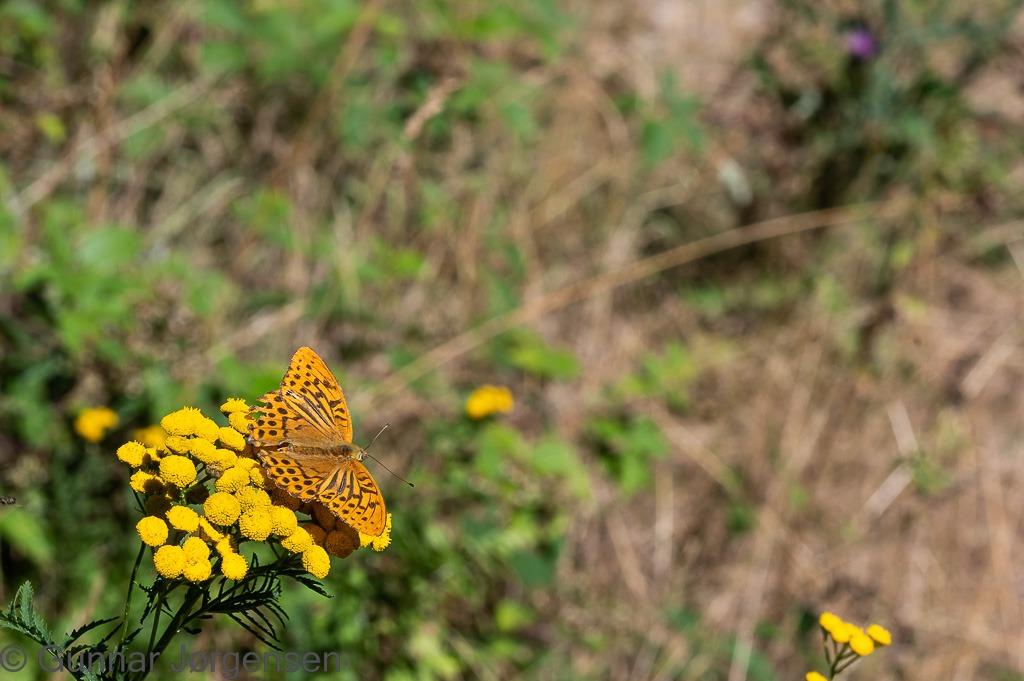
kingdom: Animalia
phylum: Arthropoda
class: Insecta
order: Lepidoptera
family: Nymphalidae
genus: Argynnis
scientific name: Argynnis paphia
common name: Kejserkåbe
